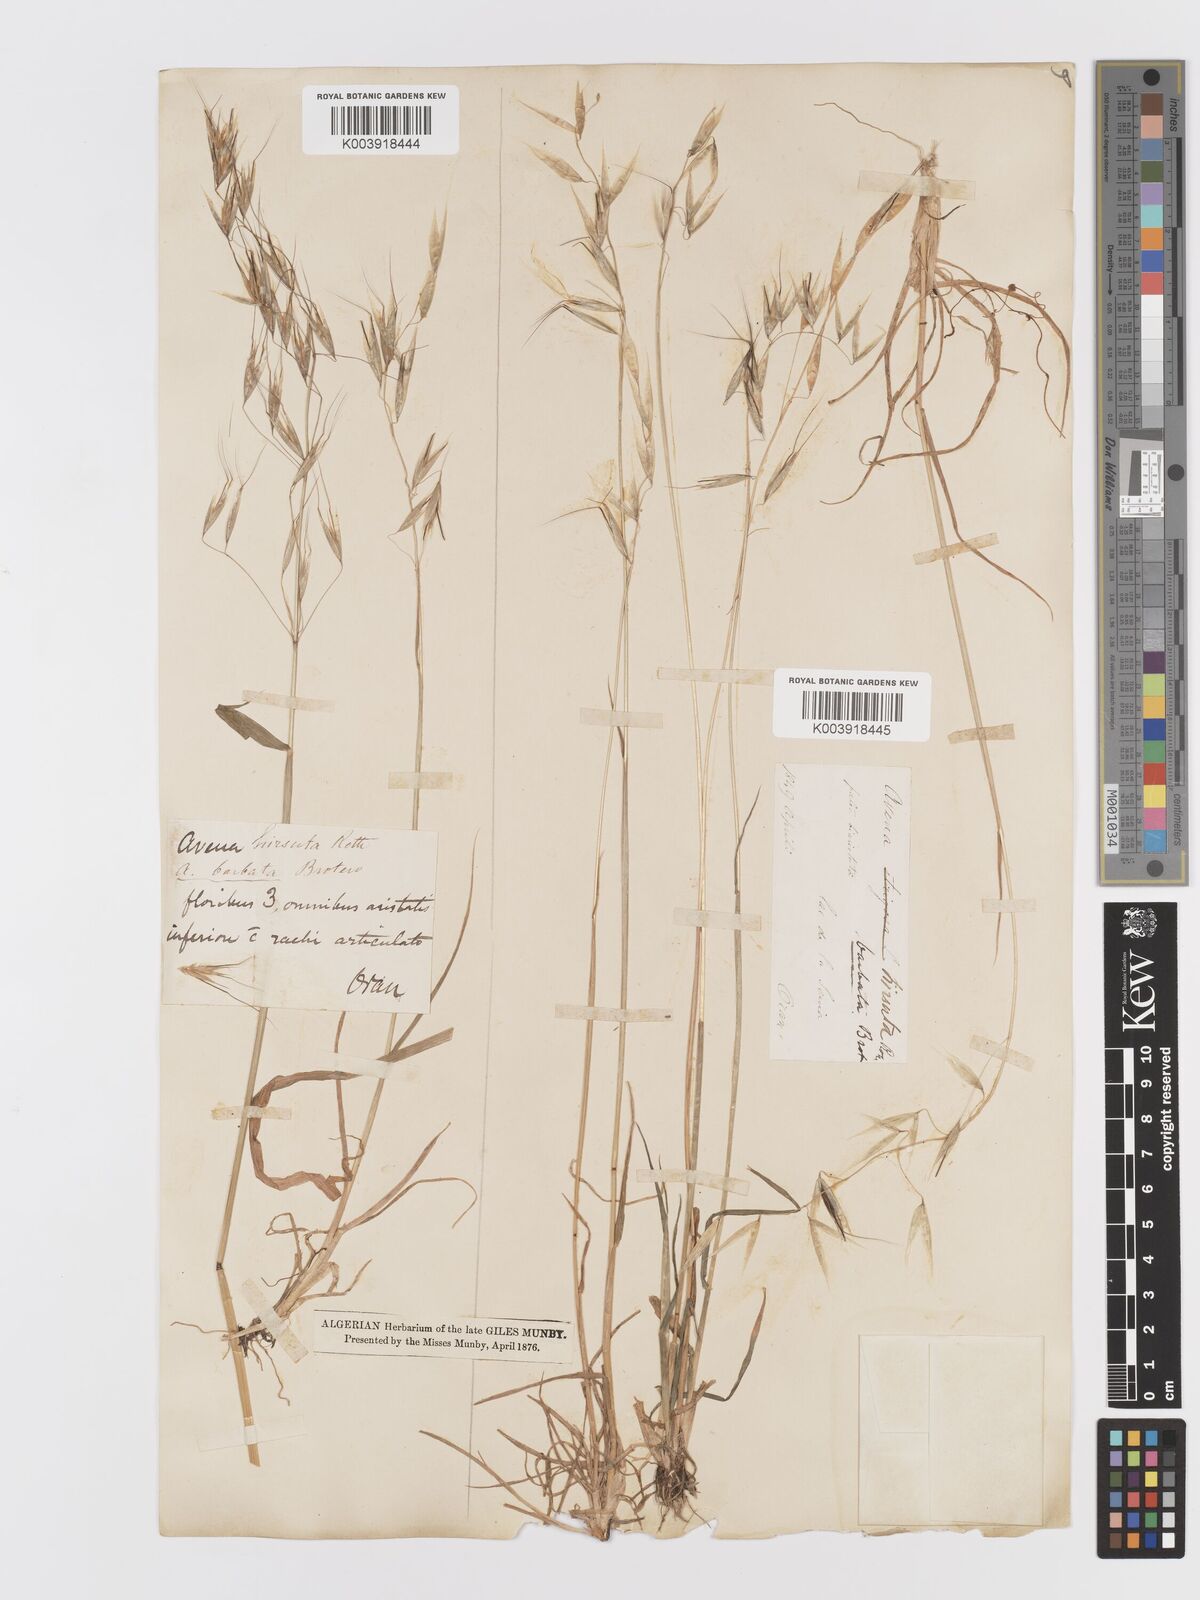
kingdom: Plantae
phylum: Tracheophyta
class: Liliopsida
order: Poales
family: Poaceae
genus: Avena
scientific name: Avena
